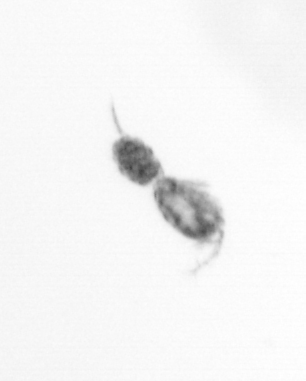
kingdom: Animalia
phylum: Arthropoda
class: Copepoda
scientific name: Copepoda
